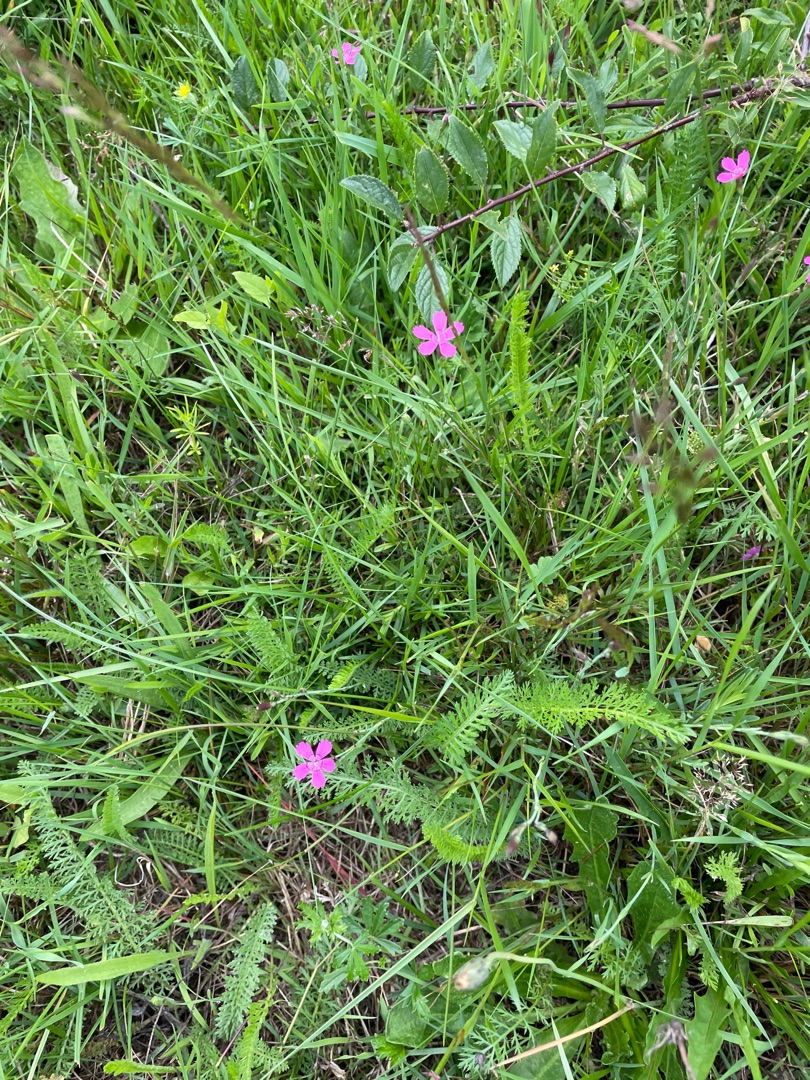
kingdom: Plantae
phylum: Tracheophyta
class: Magnoliopsida
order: Caryophyllales
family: Caryophyllaceae
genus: Dianthus
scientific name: Dianthus deltoides
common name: Bakke-nellike
